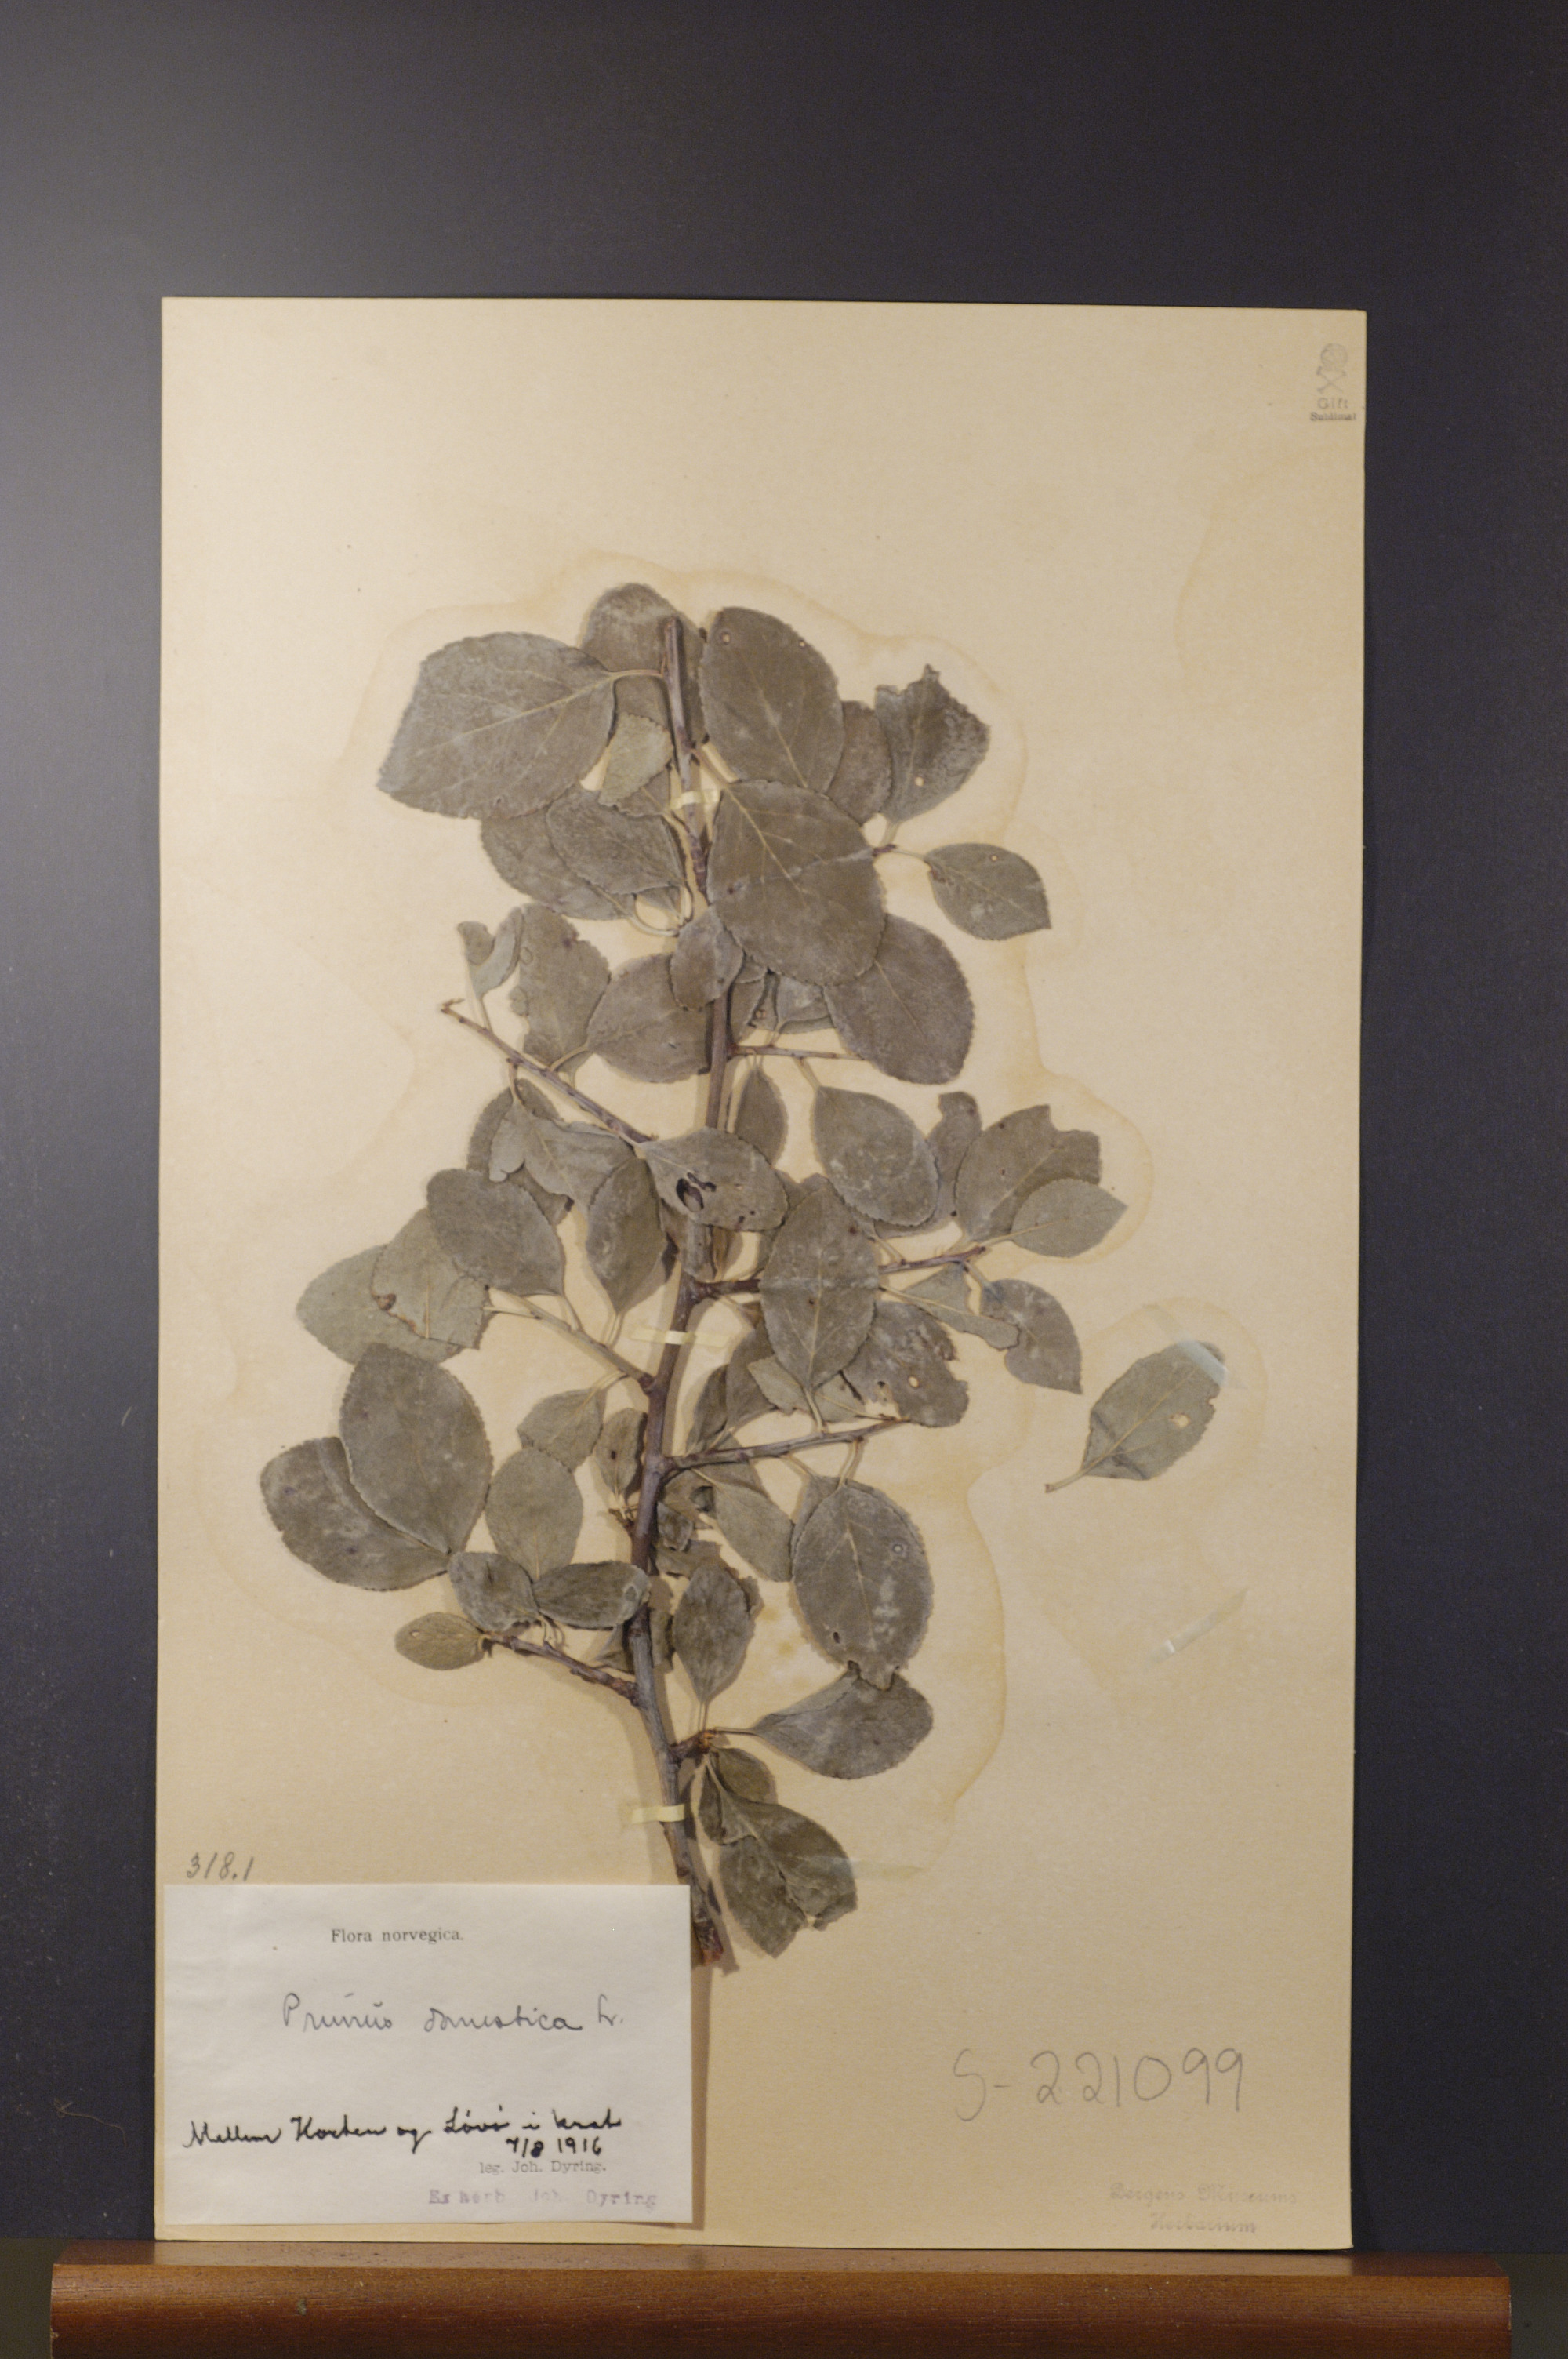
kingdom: Plantae
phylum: Tracheophyta
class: Magnoliopsida
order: Rosales
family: Rosaceae
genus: Prunus
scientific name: Prunus domestica
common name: Wild plum
